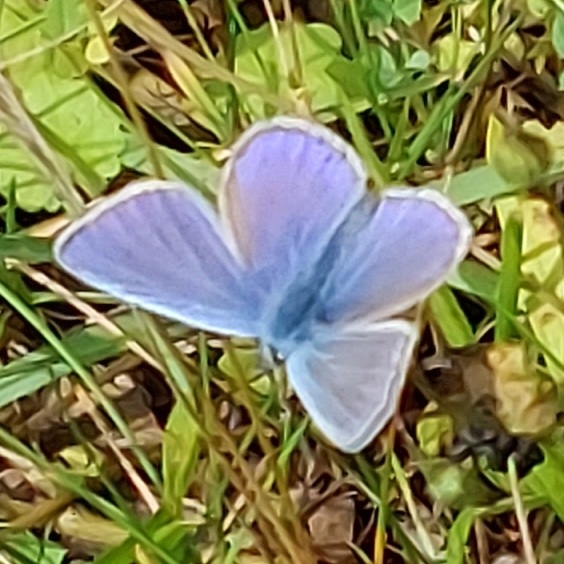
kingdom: Animalia
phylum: Arthropoda
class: Insecta
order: Lepidoptera
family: Lycaenidae
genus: Polyommatus
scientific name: Polyommatus icarus
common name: Almindelig blåfugl
